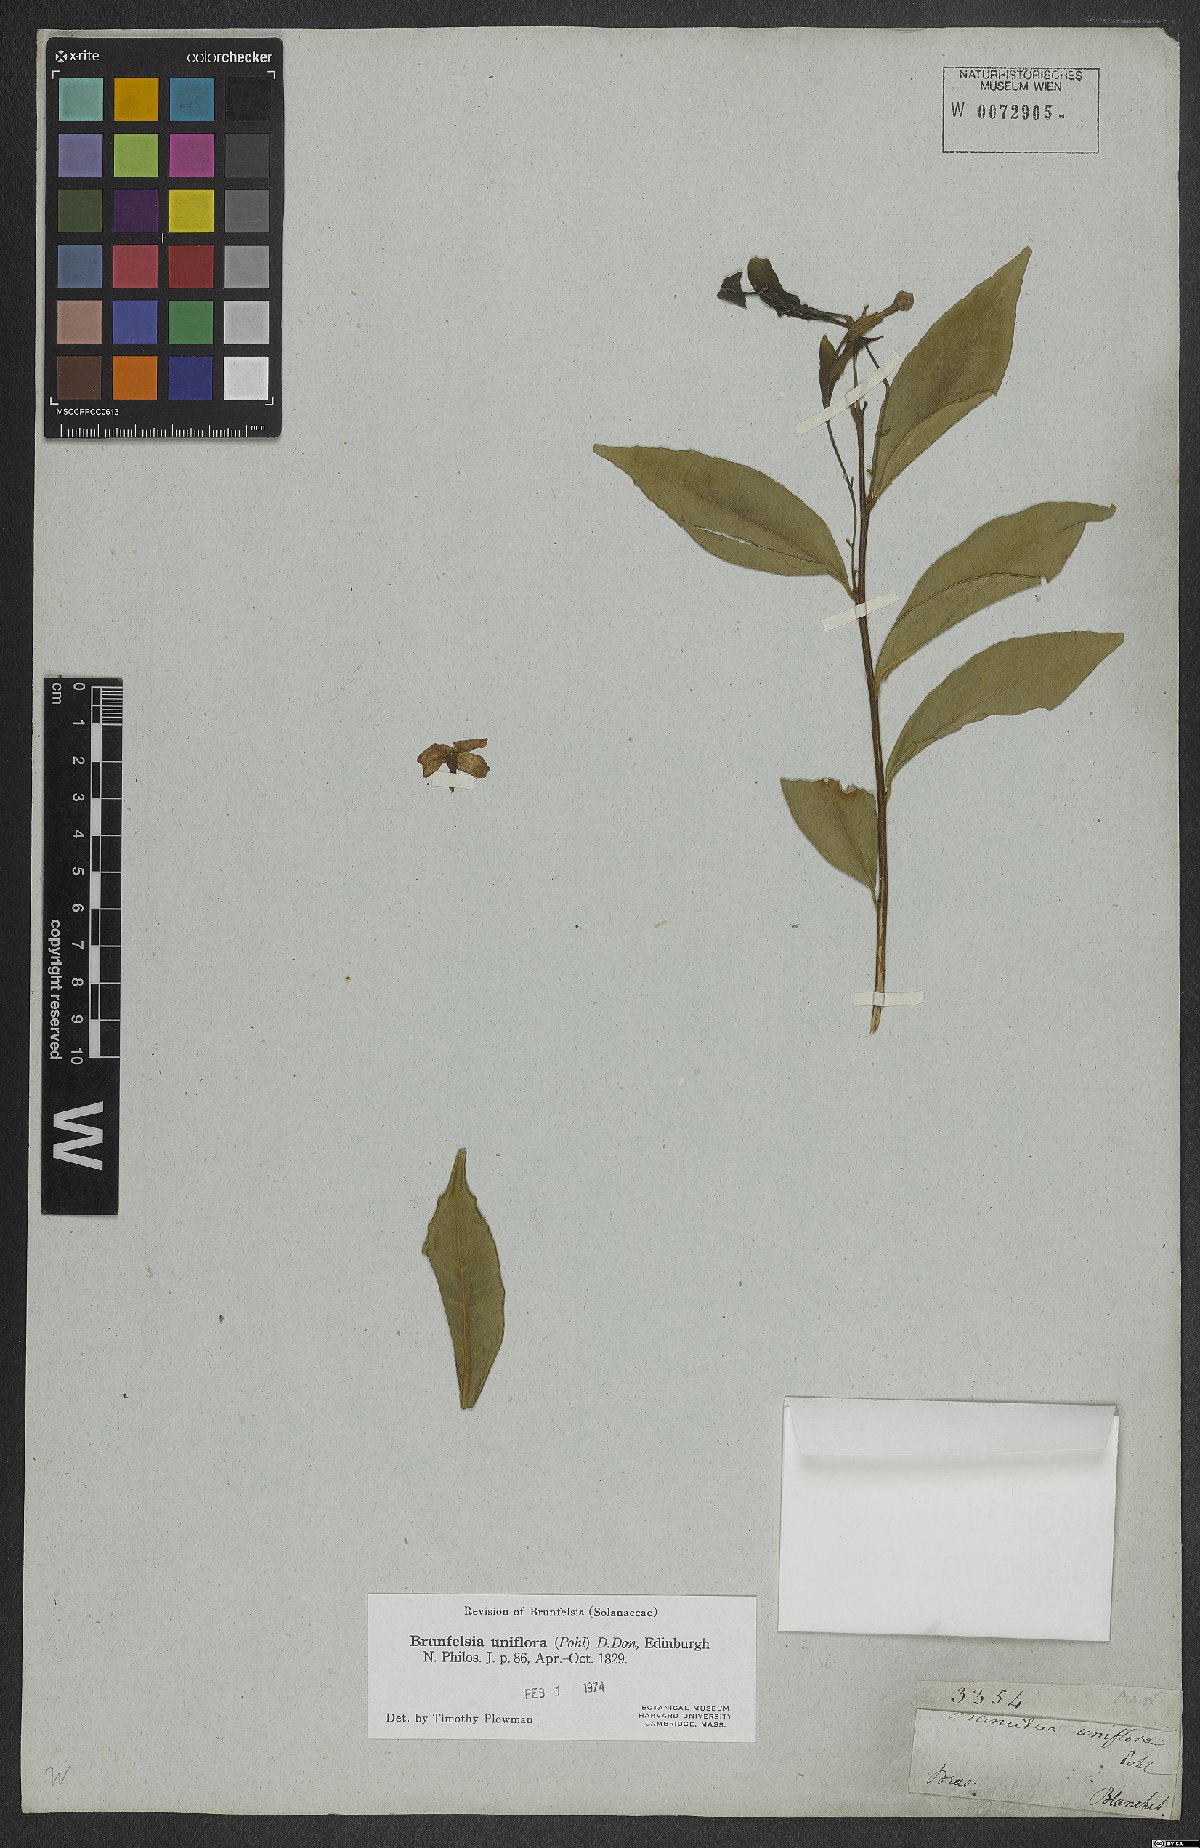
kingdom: Plantae
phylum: Tracheophyta
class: Magnoliopsida
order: Solanales
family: Solanaceae
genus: Brunfelsia
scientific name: Brunfelsia uniflora
